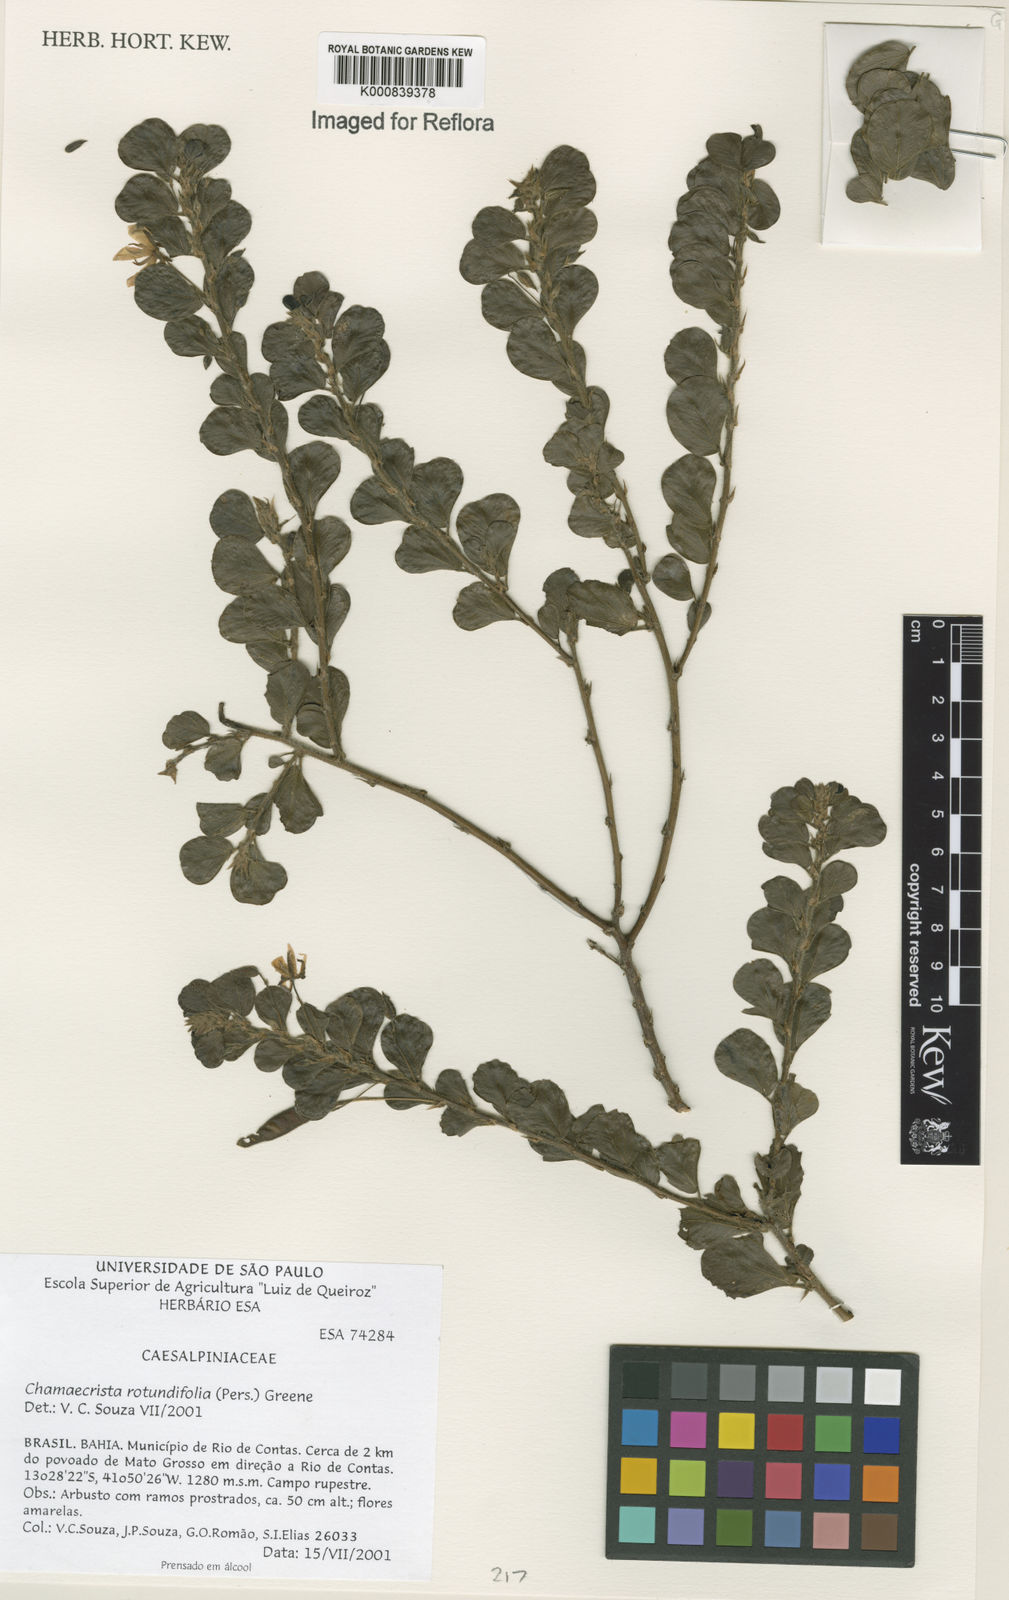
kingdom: Plantae
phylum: Tracheophyta
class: Magnoliopsida
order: Fabales
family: Fabaceae
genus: Chamaecrista
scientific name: Chamaecrista rotundifolia
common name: Round-leaf cassia
